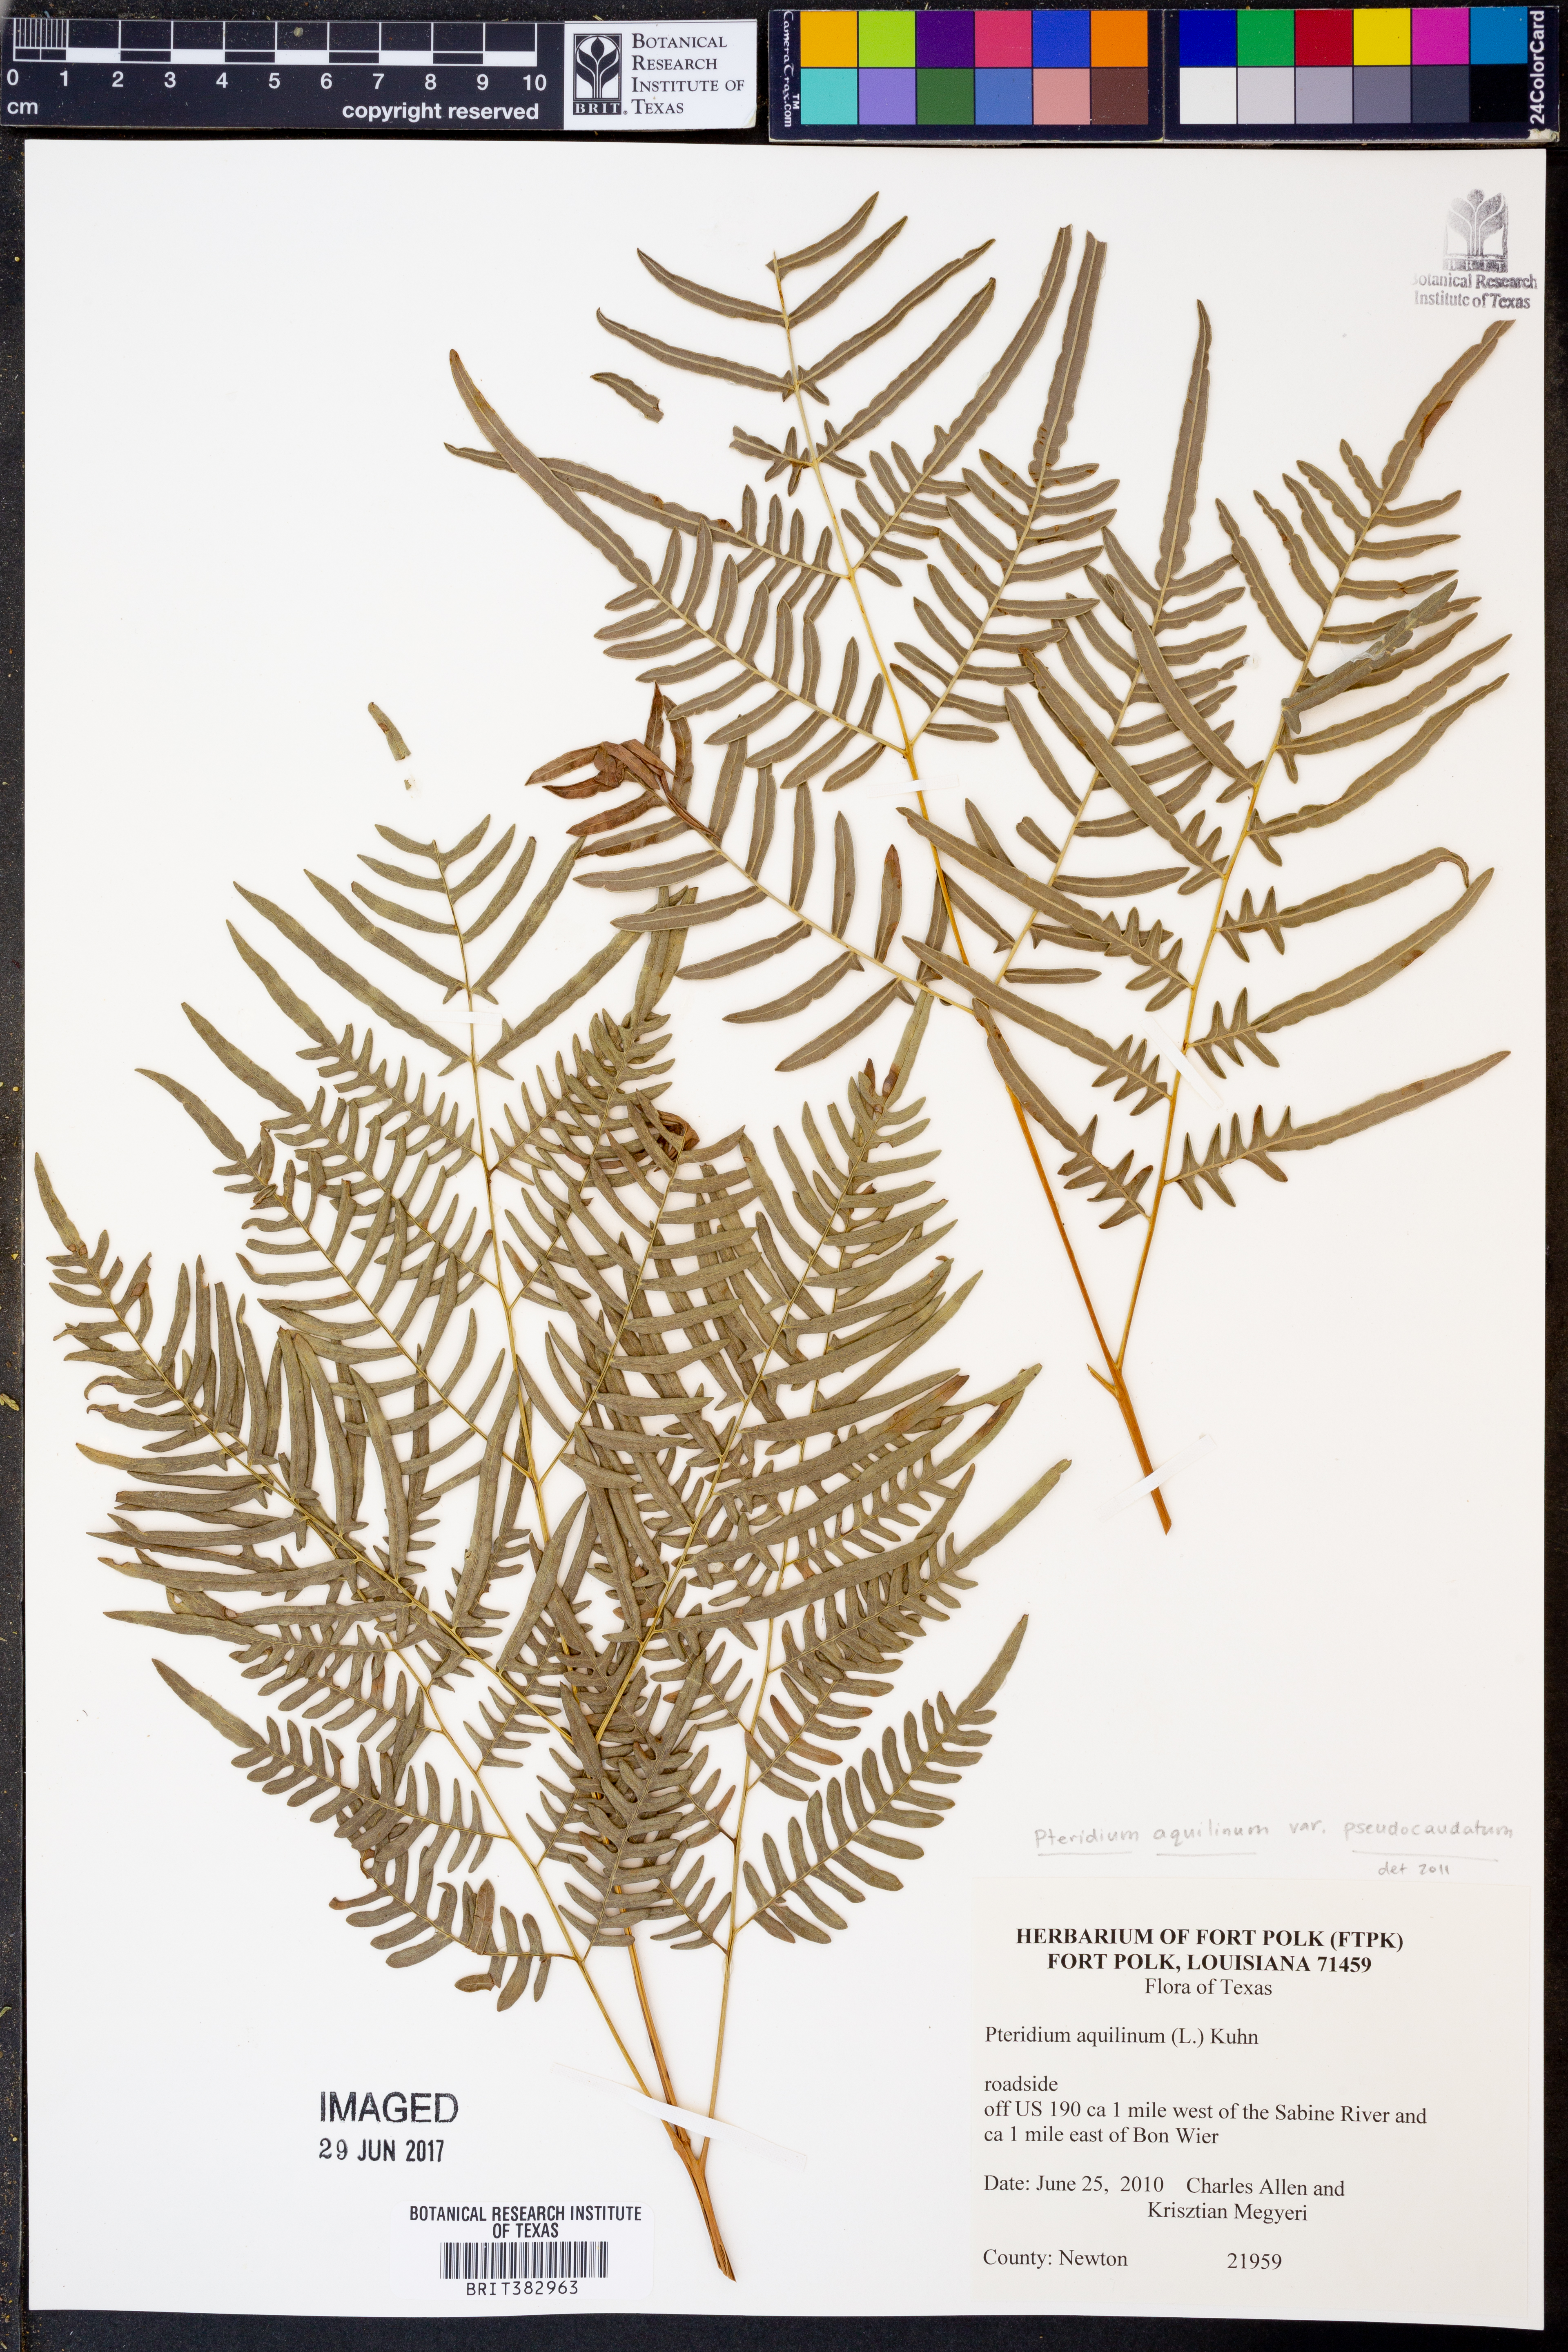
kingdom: Plantae
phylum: Tracheophyta
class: Polypodiopsida
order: Polypodiales
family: Dennstaedtiaceae
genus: Pteridium
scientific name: Pteridium aquilinum
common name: Bracken
